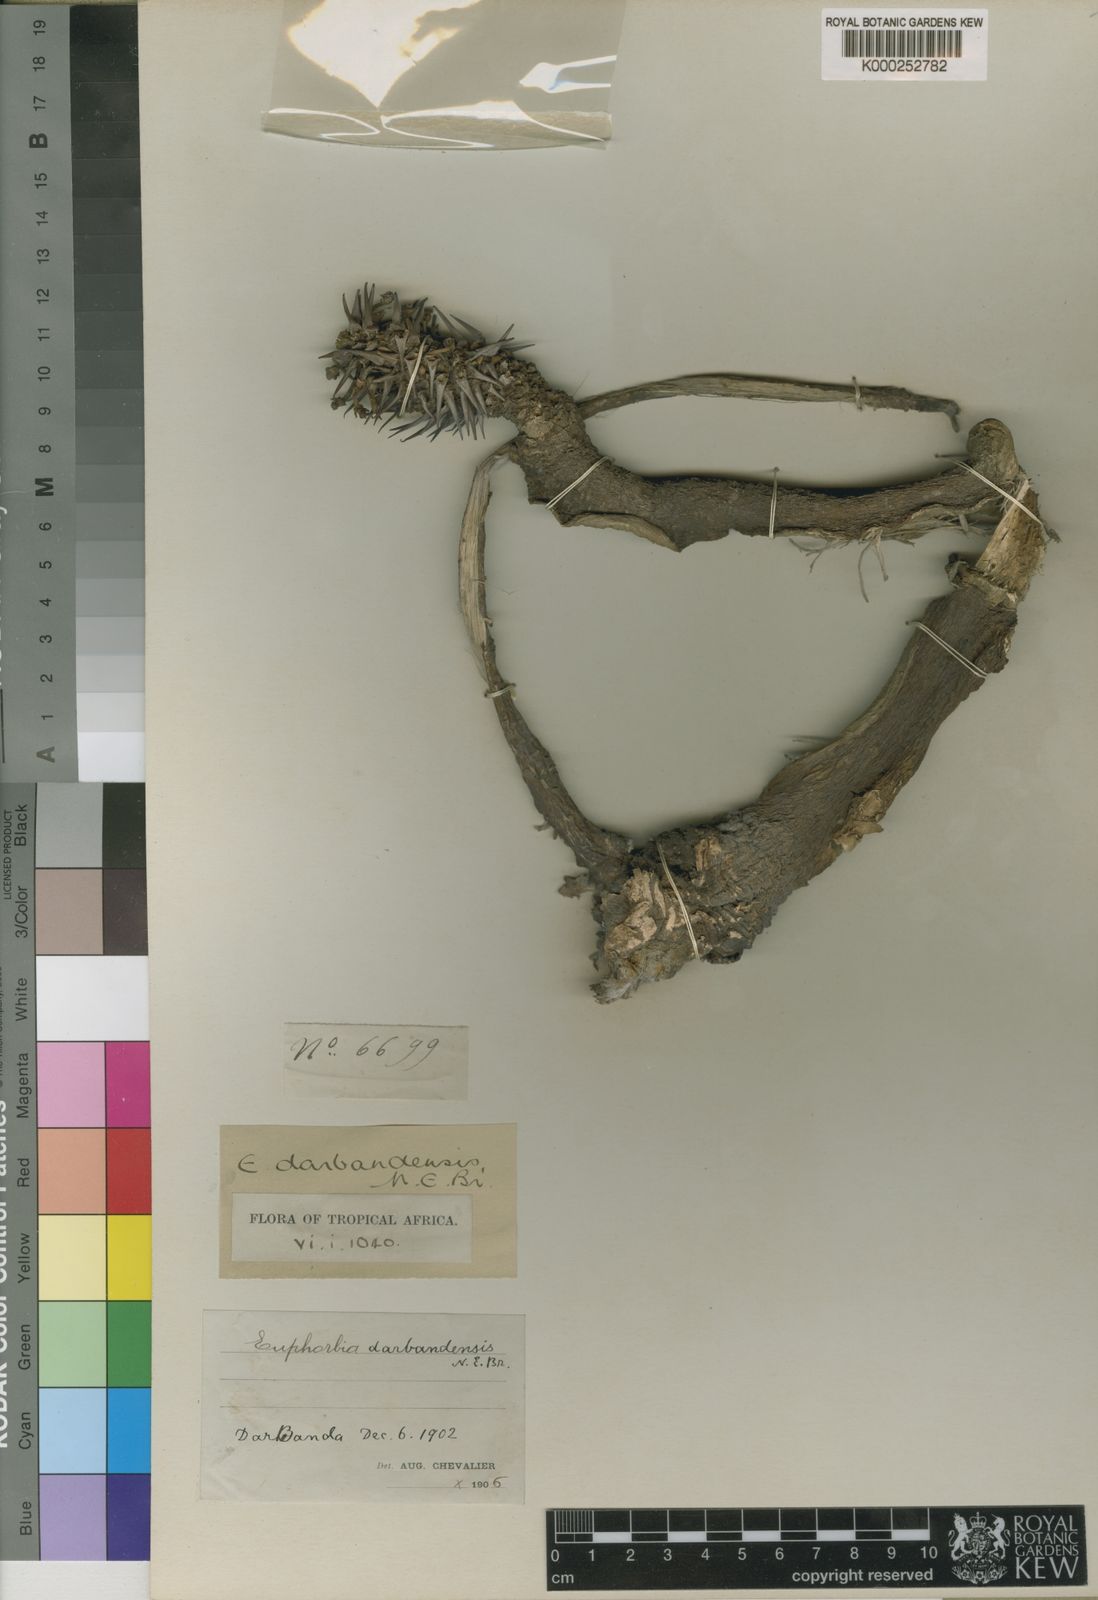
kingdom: Plantae
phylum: Tracheophyta
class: Magnoliopsida
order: Malpighiales
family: Euphorbiaceae
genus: Euphorbia
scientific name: Euphorbia darbandensis
